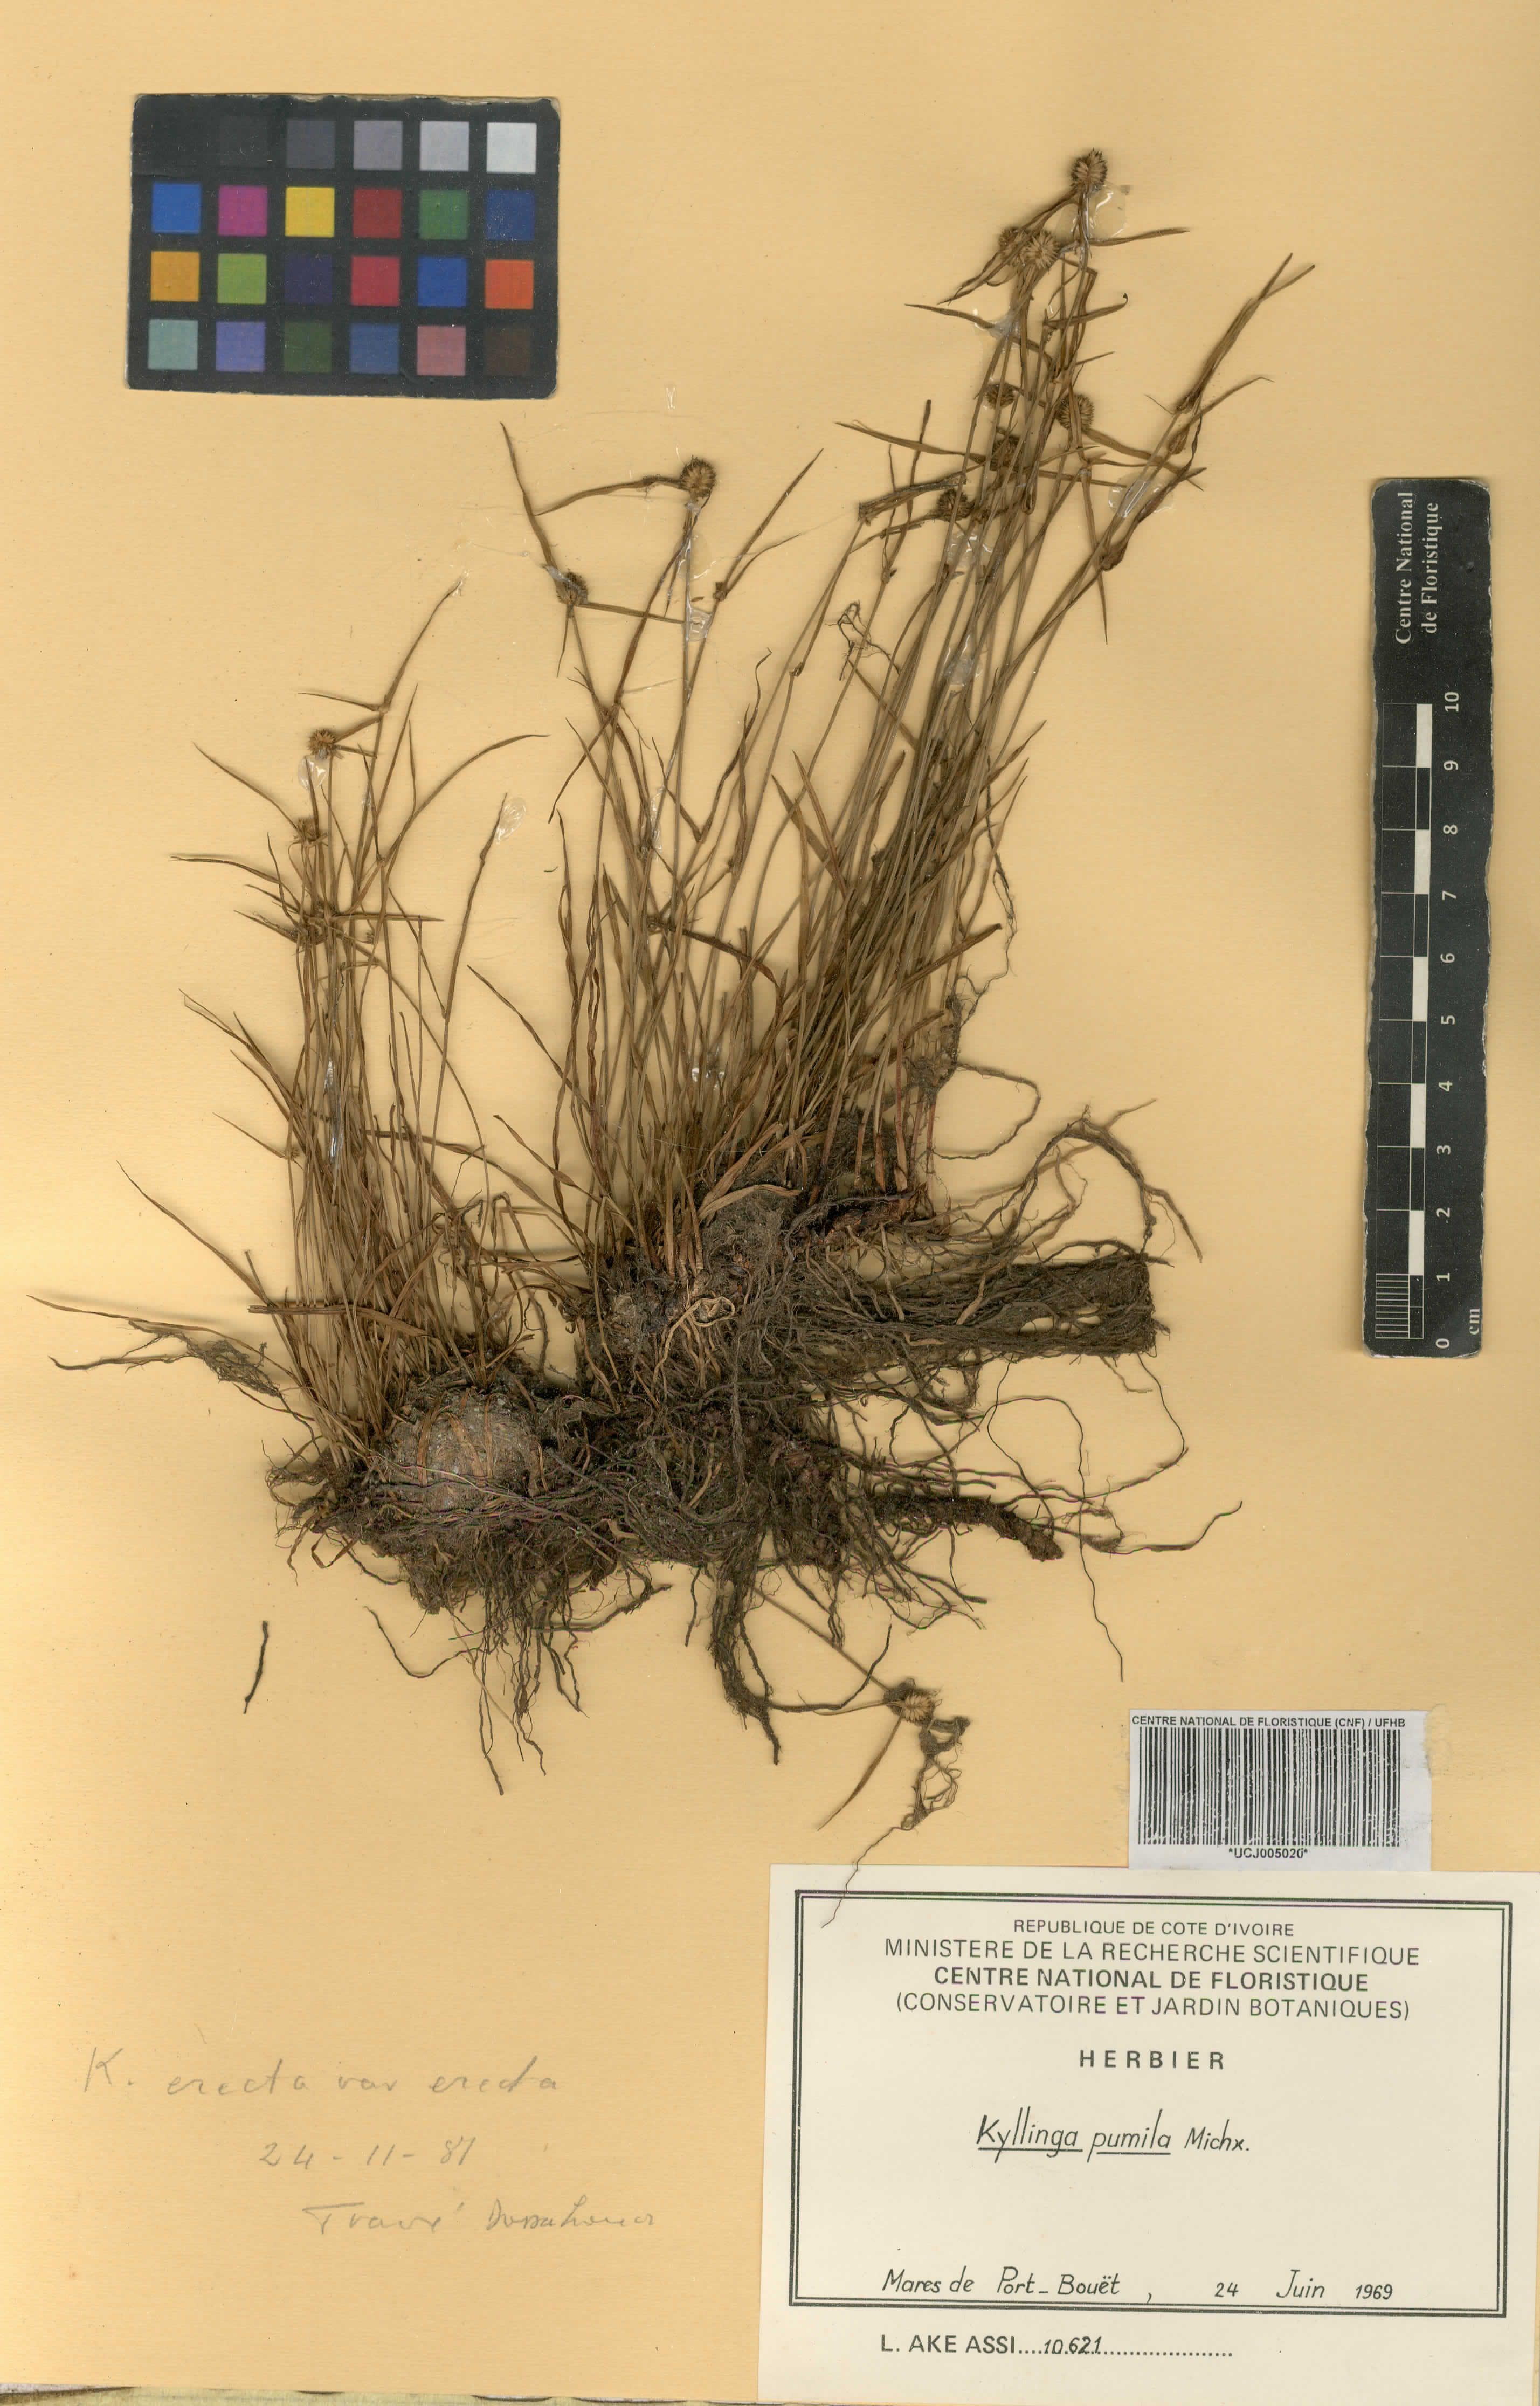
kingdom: Plantae
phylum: Tracheophyta
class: Liliopsida
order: Poales
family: Cyperaceae
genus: Cyperus
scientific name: Cyperus hortensis
